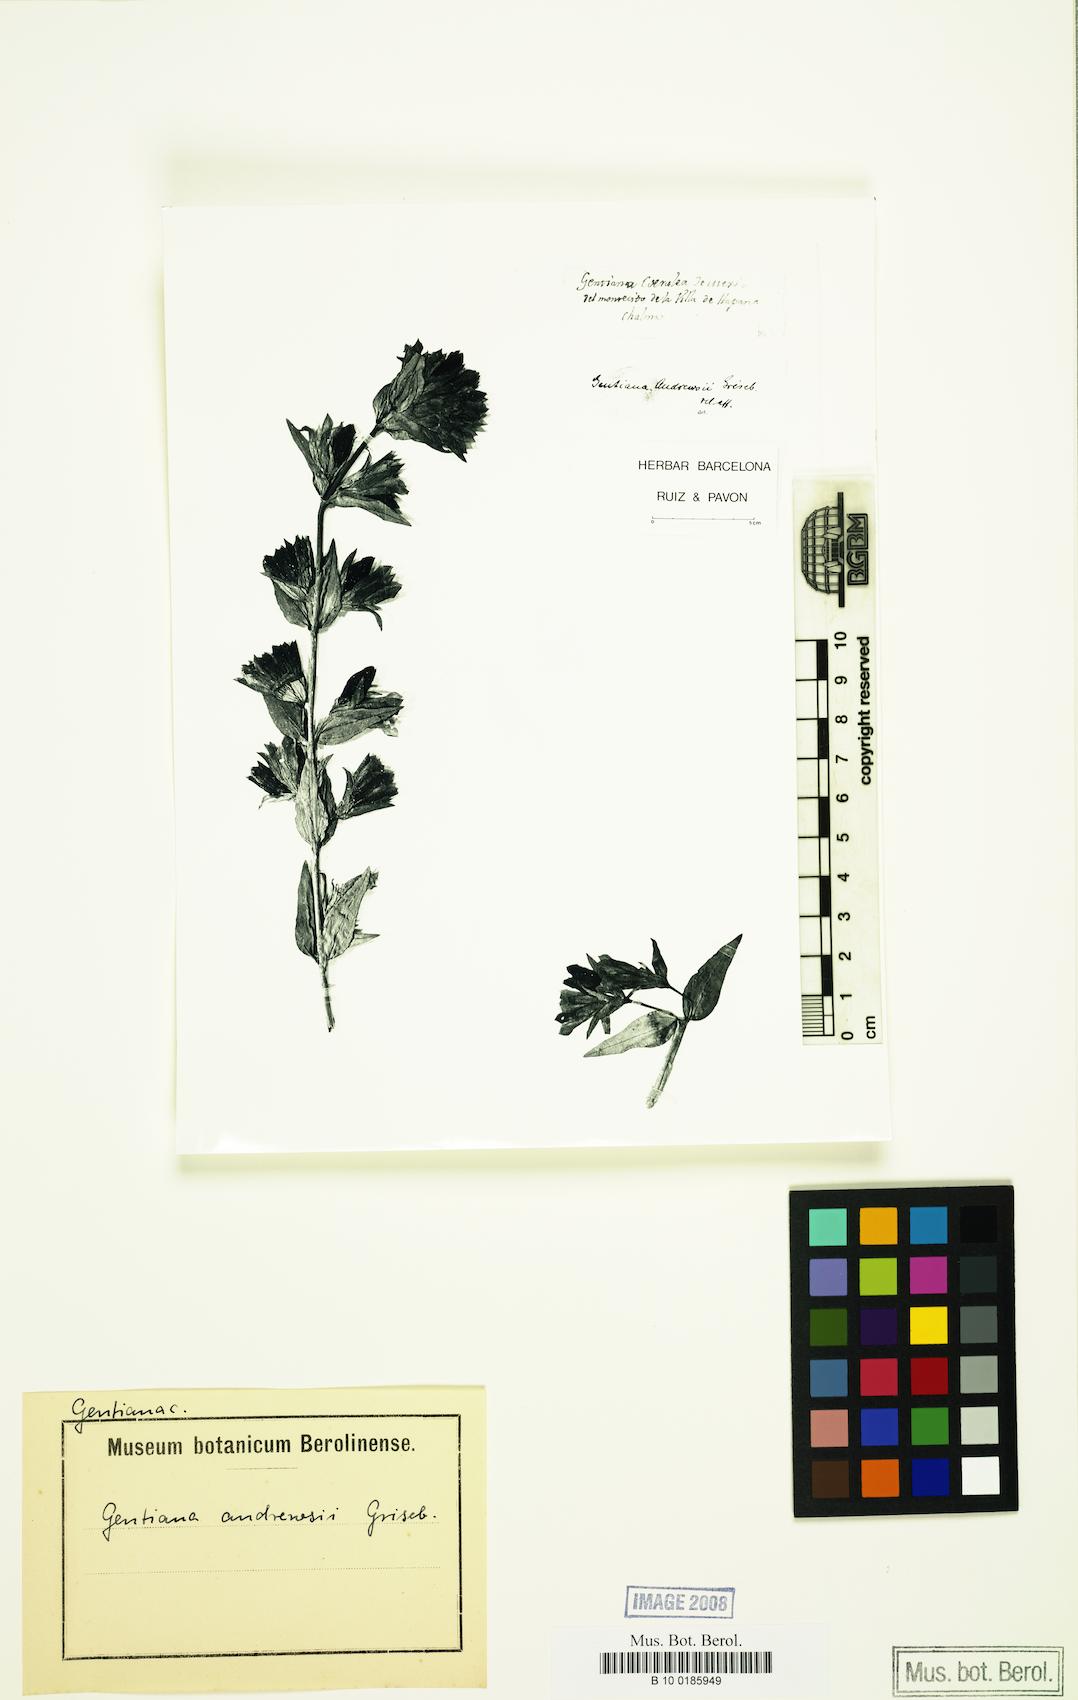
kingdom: Plantae
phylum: Tracheophyta
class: Magnoliopsida
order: Gentianales
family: Gentianaceae
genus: Gentiana
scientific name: Gentiana andrewsii
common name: Bottle gentian
